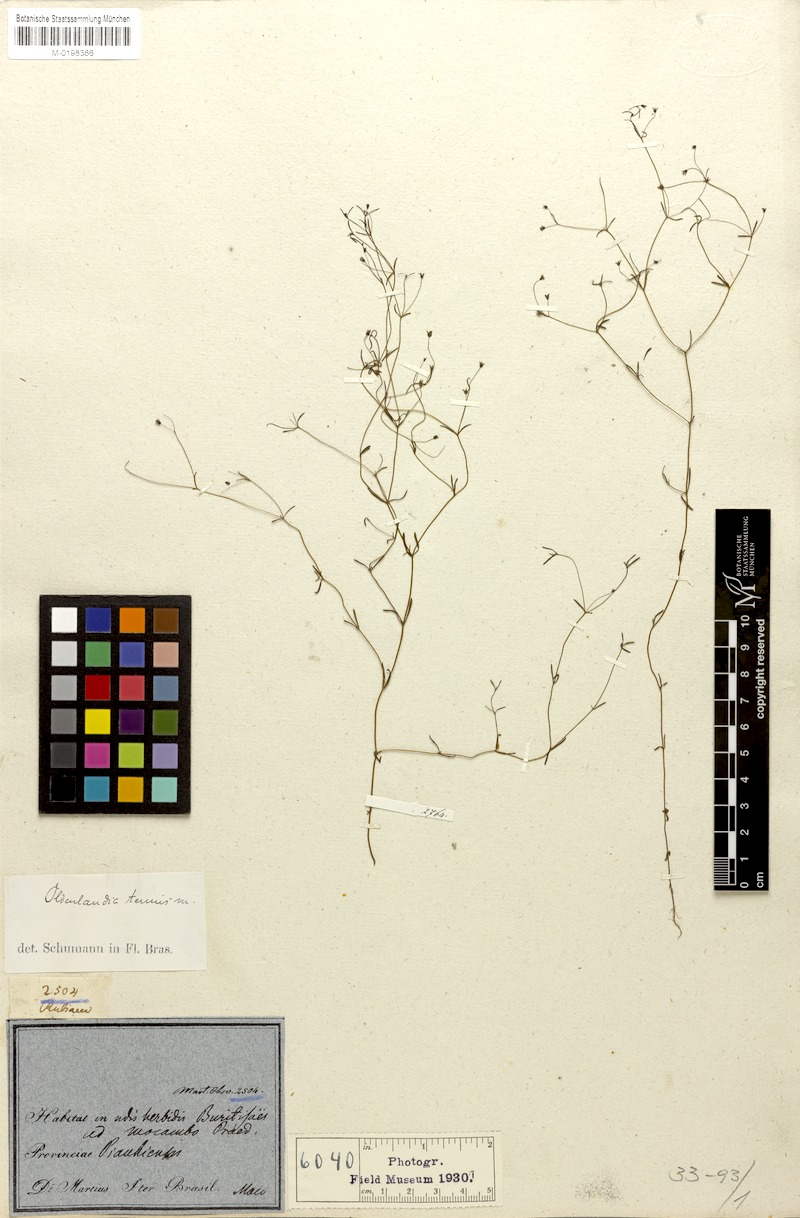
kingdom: Plantae
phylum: Tracheophyta
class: Magnoliopsida
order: Gentianales
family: Rubiaceae
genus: Oldenlandia
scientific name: Oldenlandia tenuis
